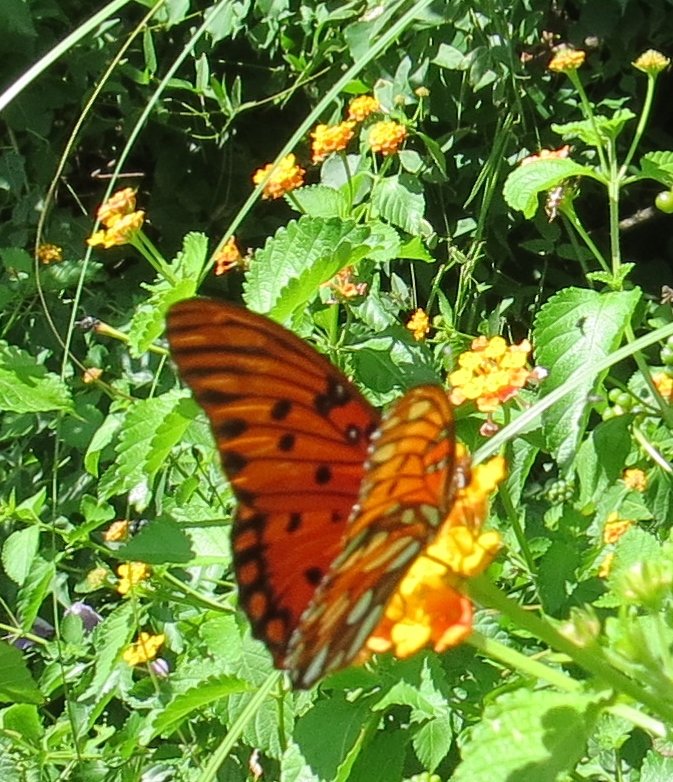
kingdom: Animalia
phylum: Arthropoda
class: Insecta
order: Lepidoptera
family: Nymphalidae
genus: Dione
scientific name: Dione vanillae
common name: Gulf Fritillary
